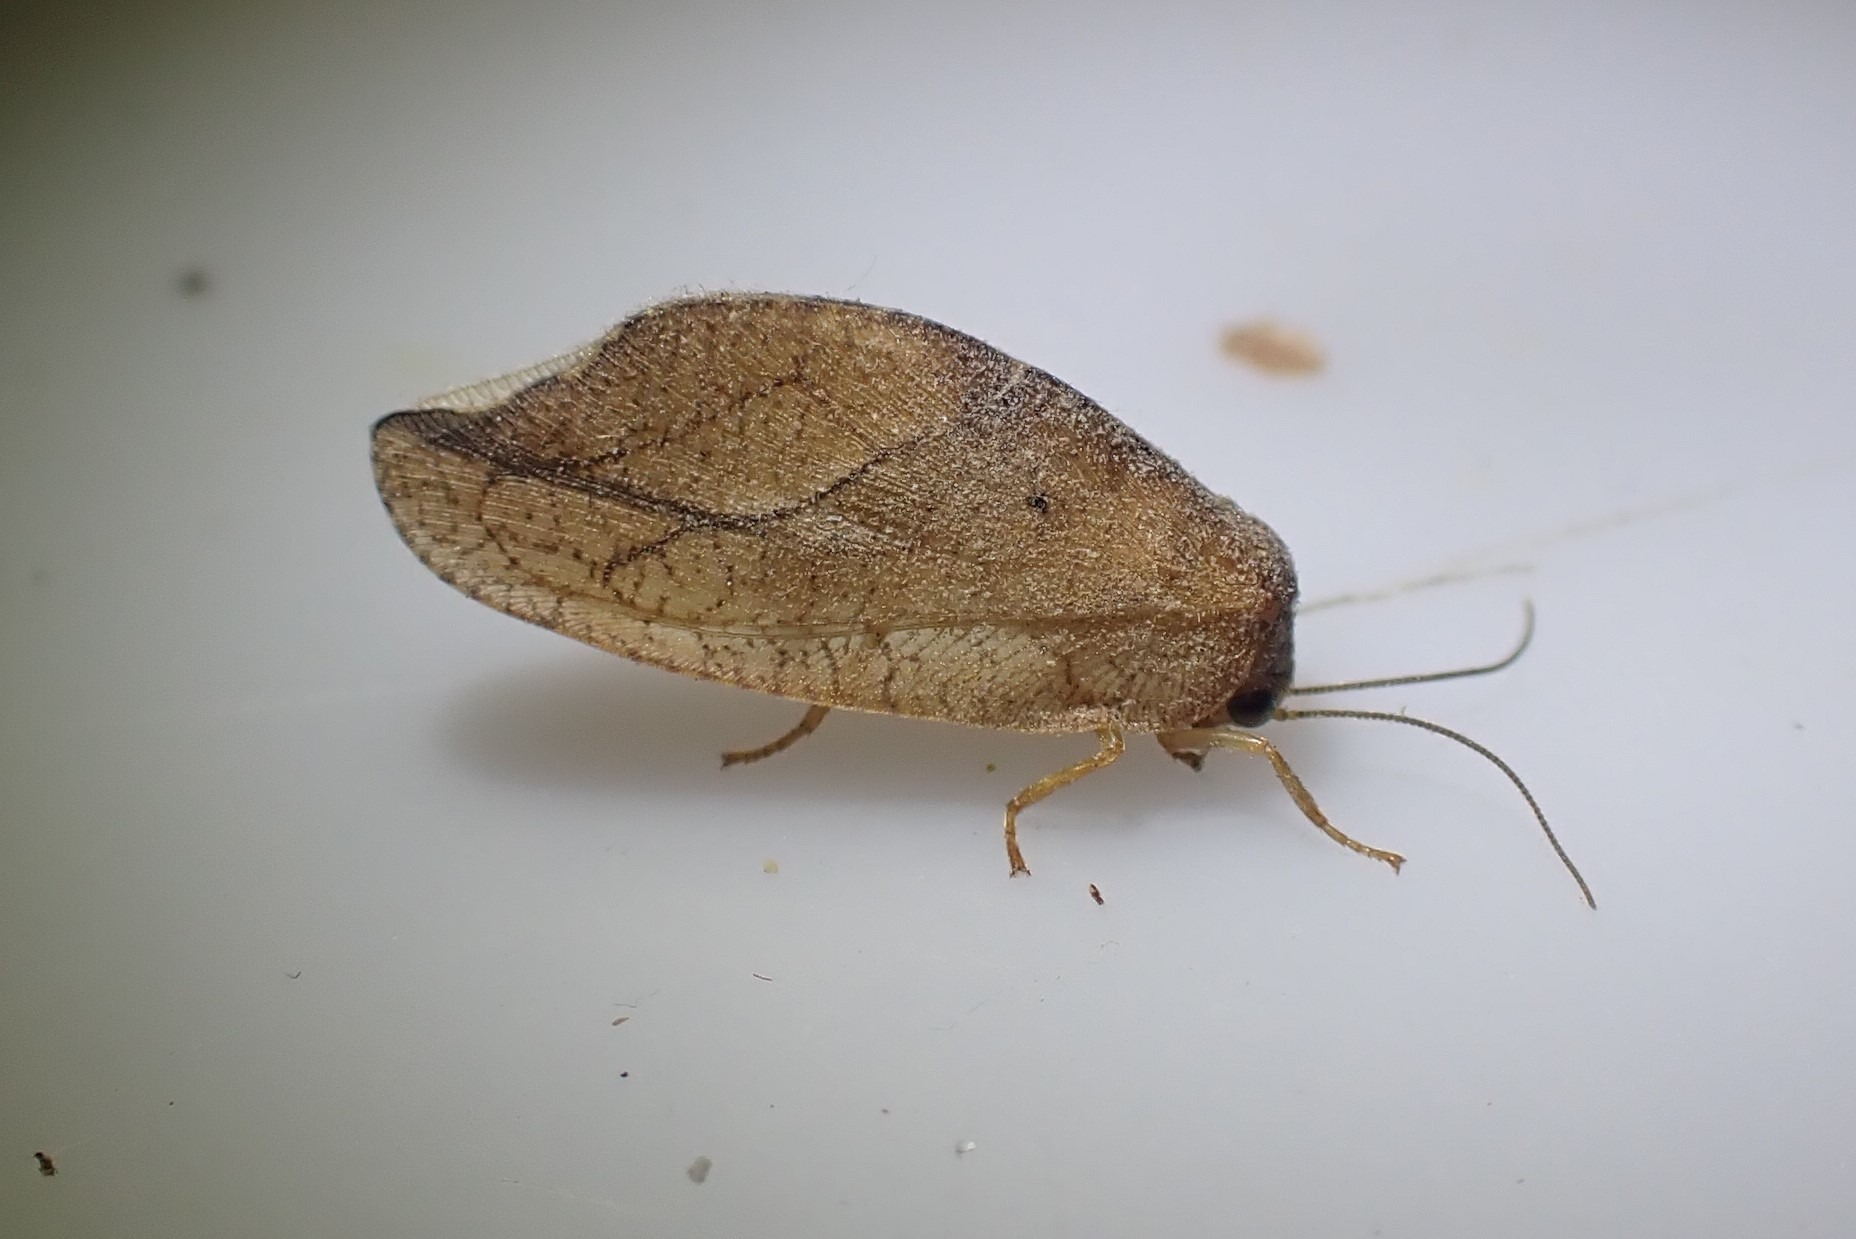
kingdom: Animalia
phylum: Arthropoda
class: Insecta
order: Neuroptera
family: Hemerobiidae
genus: Drepanepteryx
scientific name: Drepanepteryx phalaenoides
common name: Det visne blad
